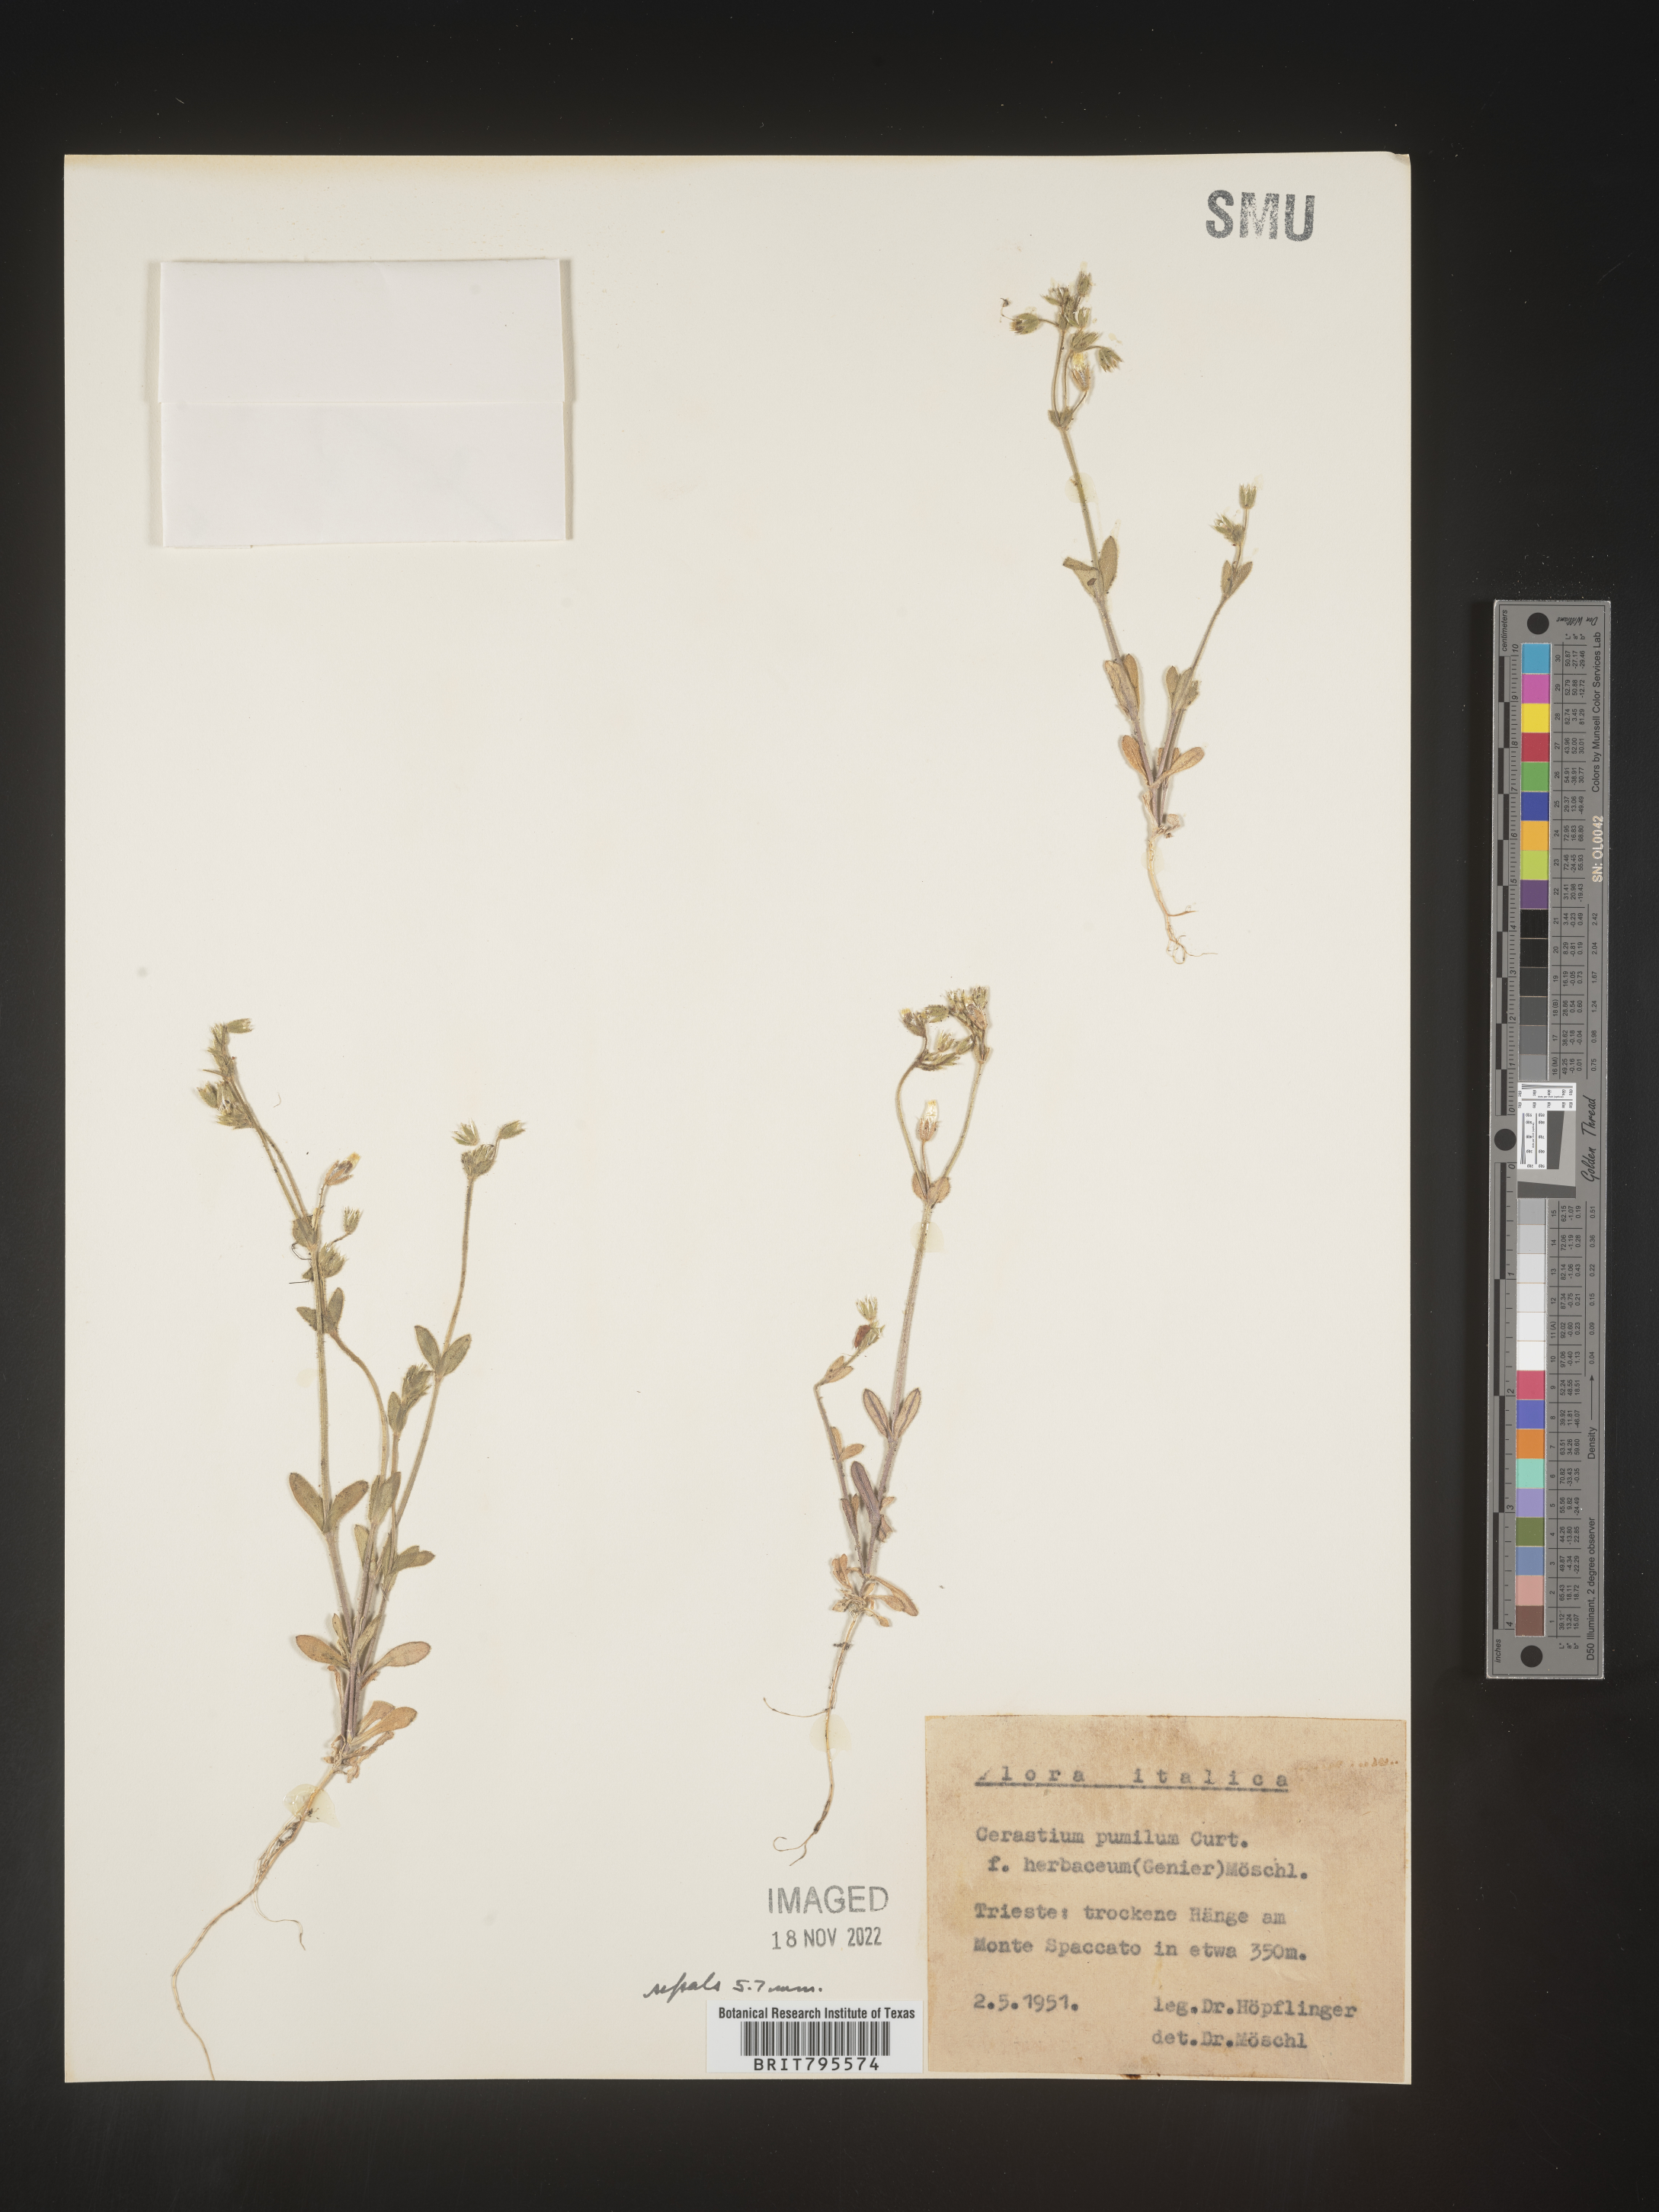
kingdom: Plantae
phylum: Tracheophyta
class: Magnoliopsida
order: Caryophyllales
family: Caryophyllaceae
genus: Cerastium
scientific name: Cerastium
